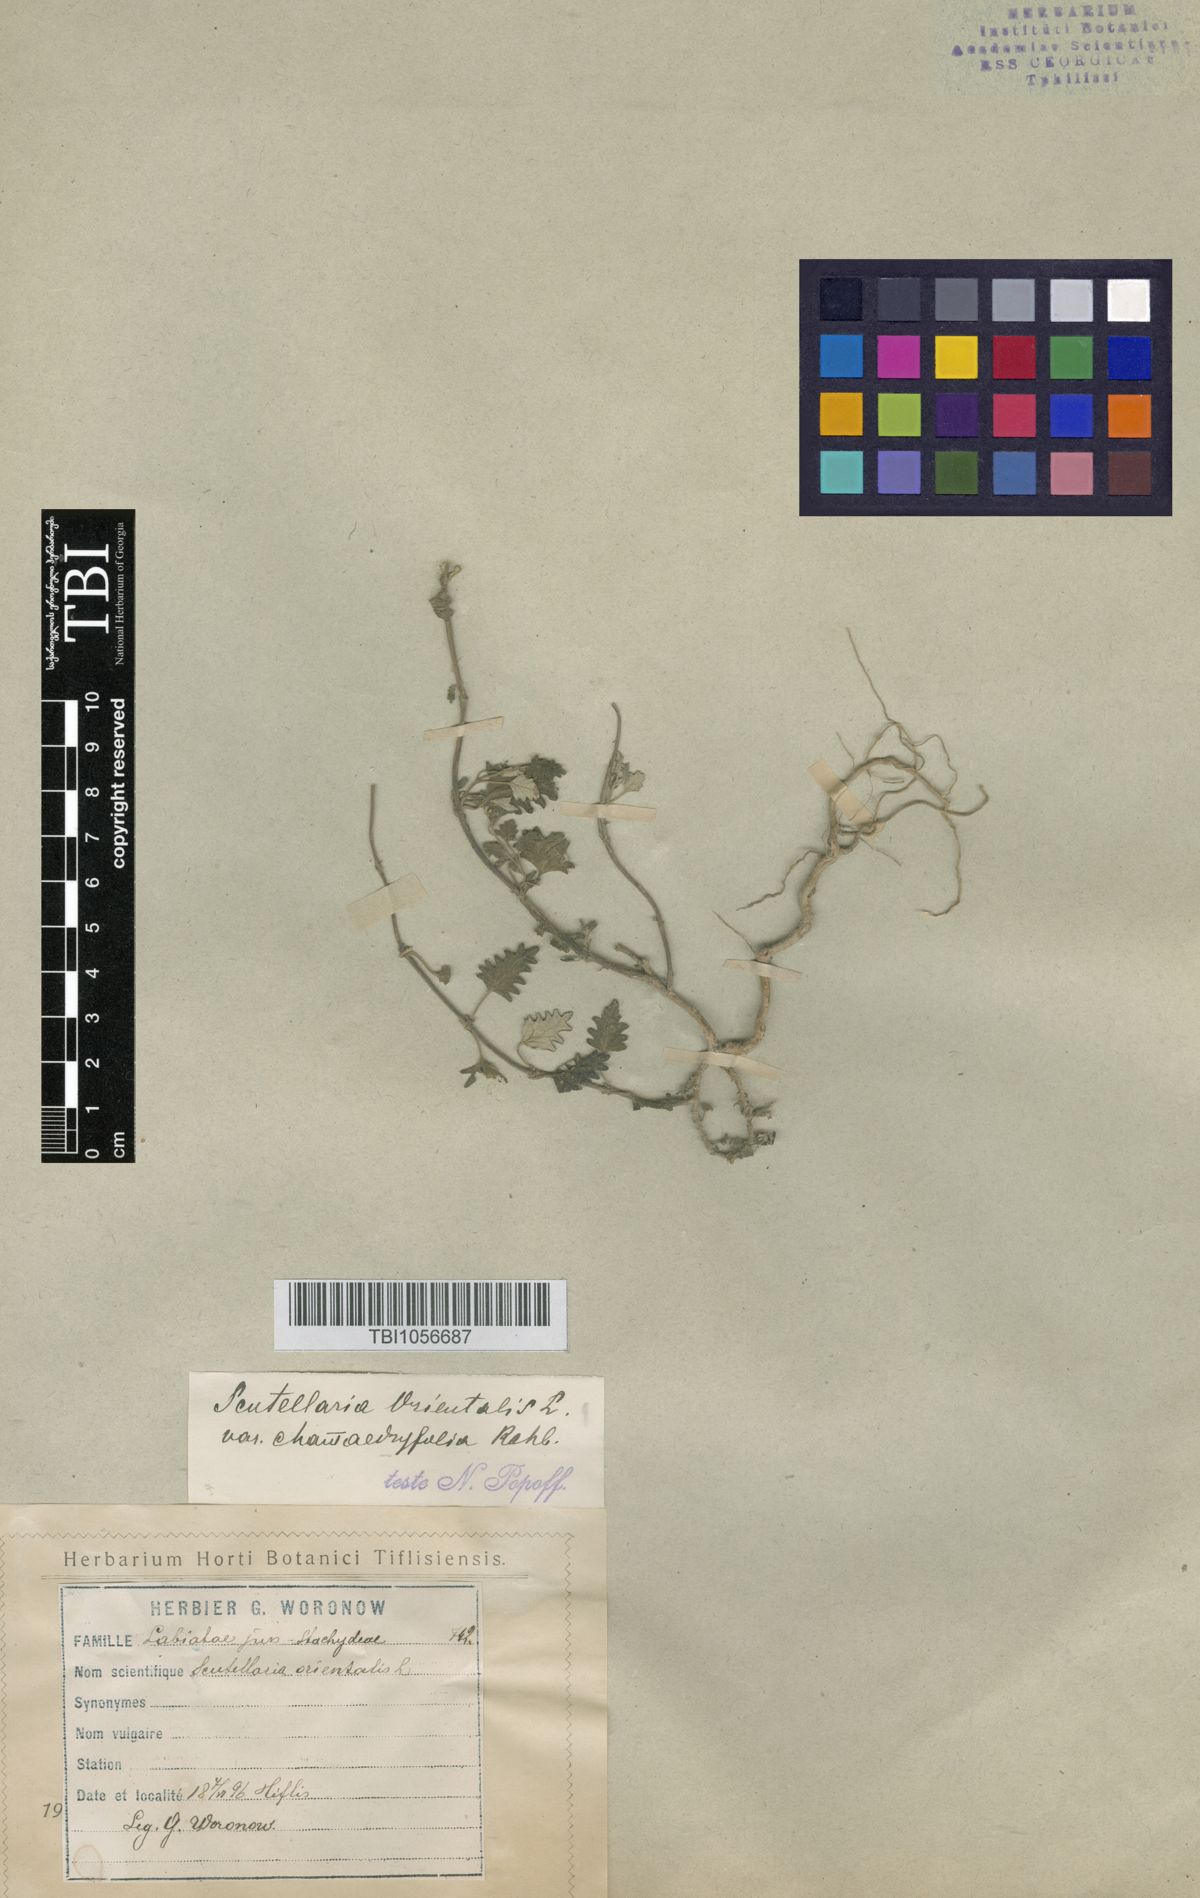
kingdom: Plantae
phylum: Tracheophyta
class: Magnoliopsida
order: Lamiales
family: Lamiaceae
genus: Scutellaria
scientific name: Scutellaria orientalis
